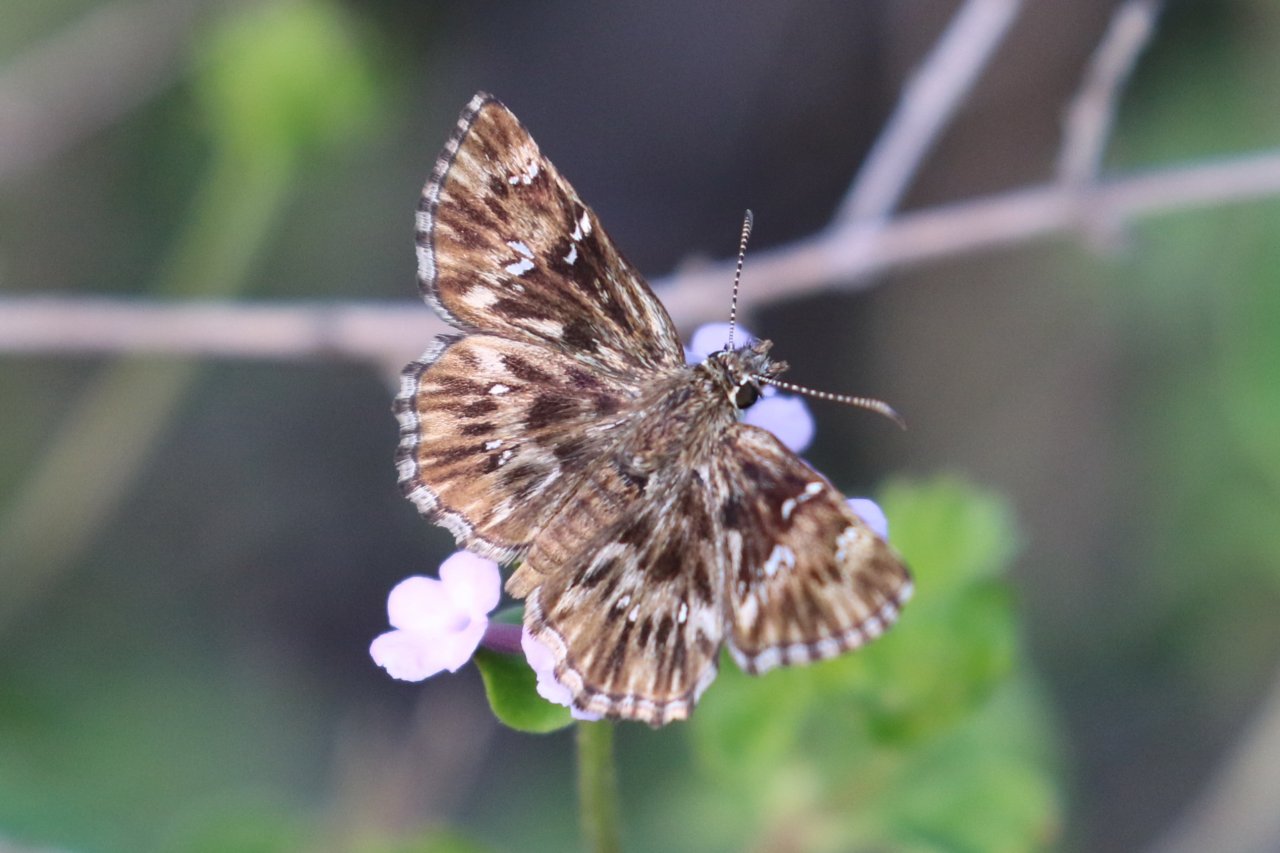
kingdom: Animalia
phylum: Arthropoda
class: Insecta
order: Lepidoptera
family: Hesperiidae
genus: Celotes
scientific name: Celotes nessus
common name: Common Streaky-Skipper
